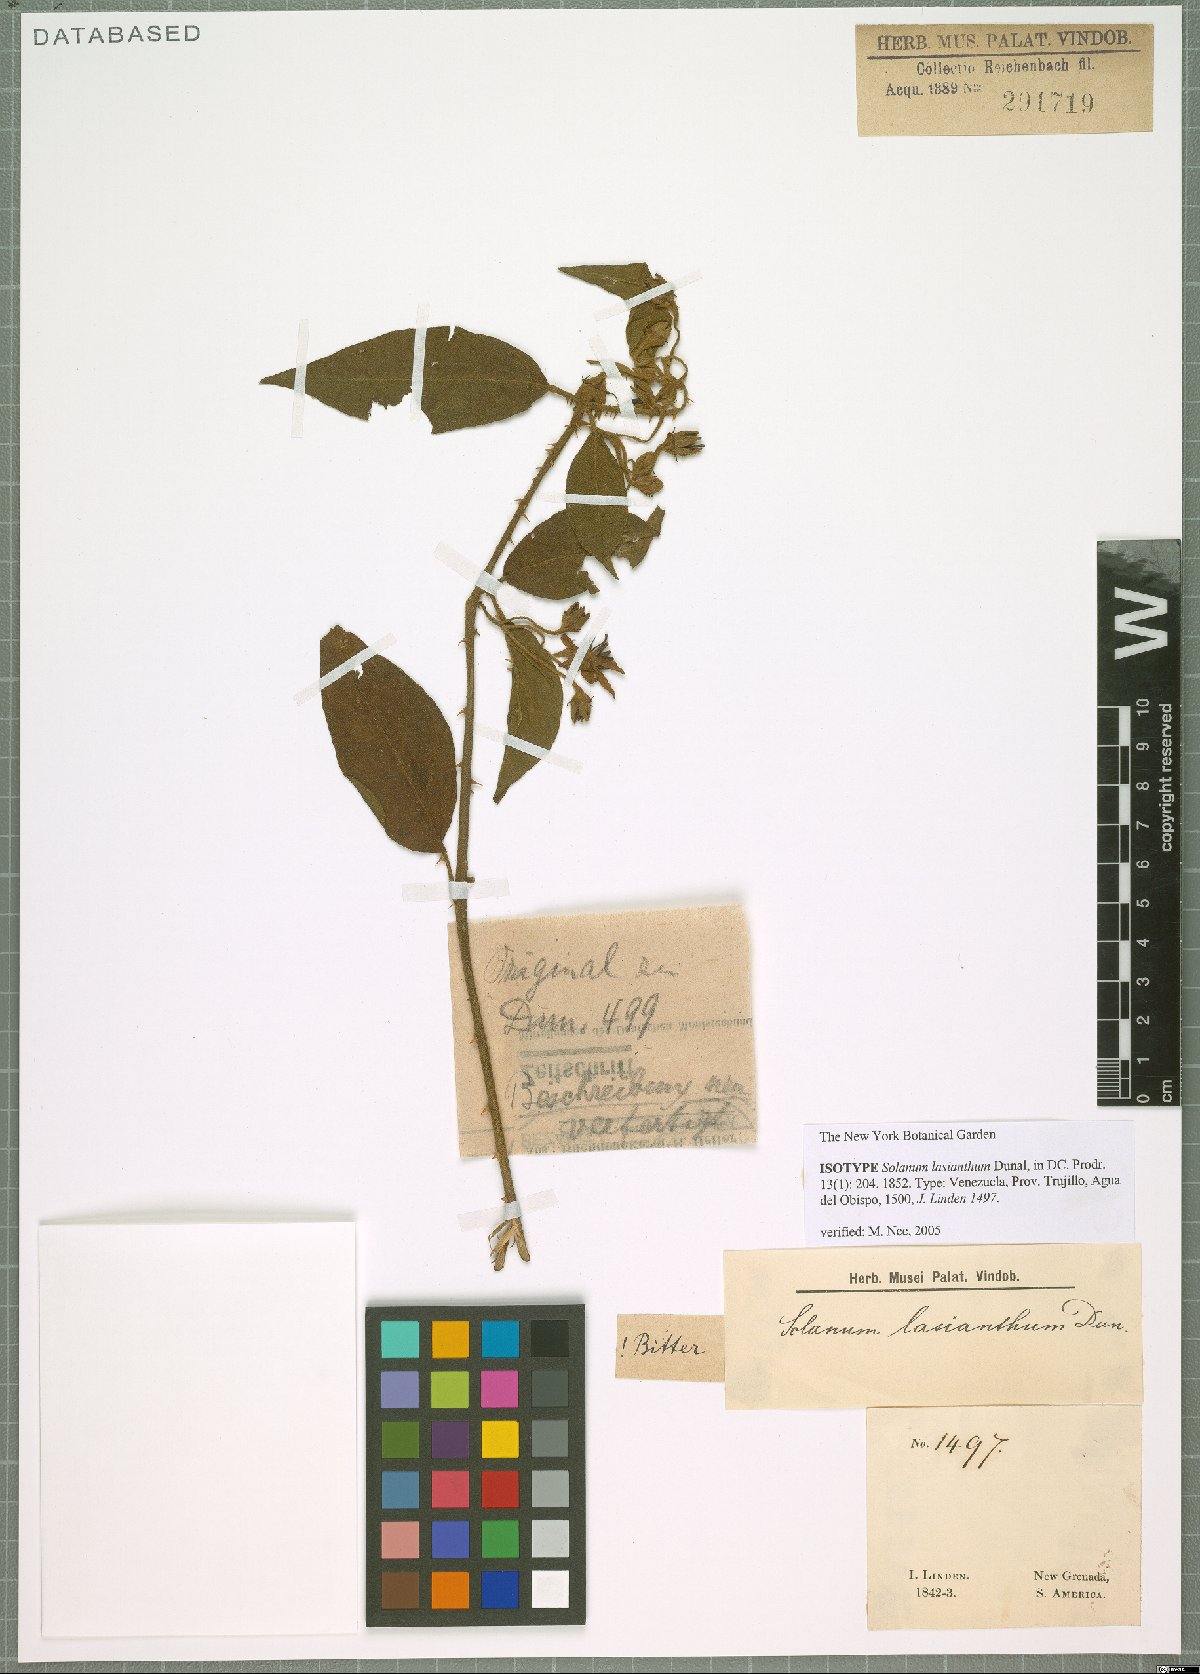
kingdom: Plantae
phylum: Tracheophyta
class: Magnoliopsida
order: Solanales
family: Solanaceae
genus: Solanum
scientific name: Solanum lanceifolium
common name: Lanceleaf nightshade
